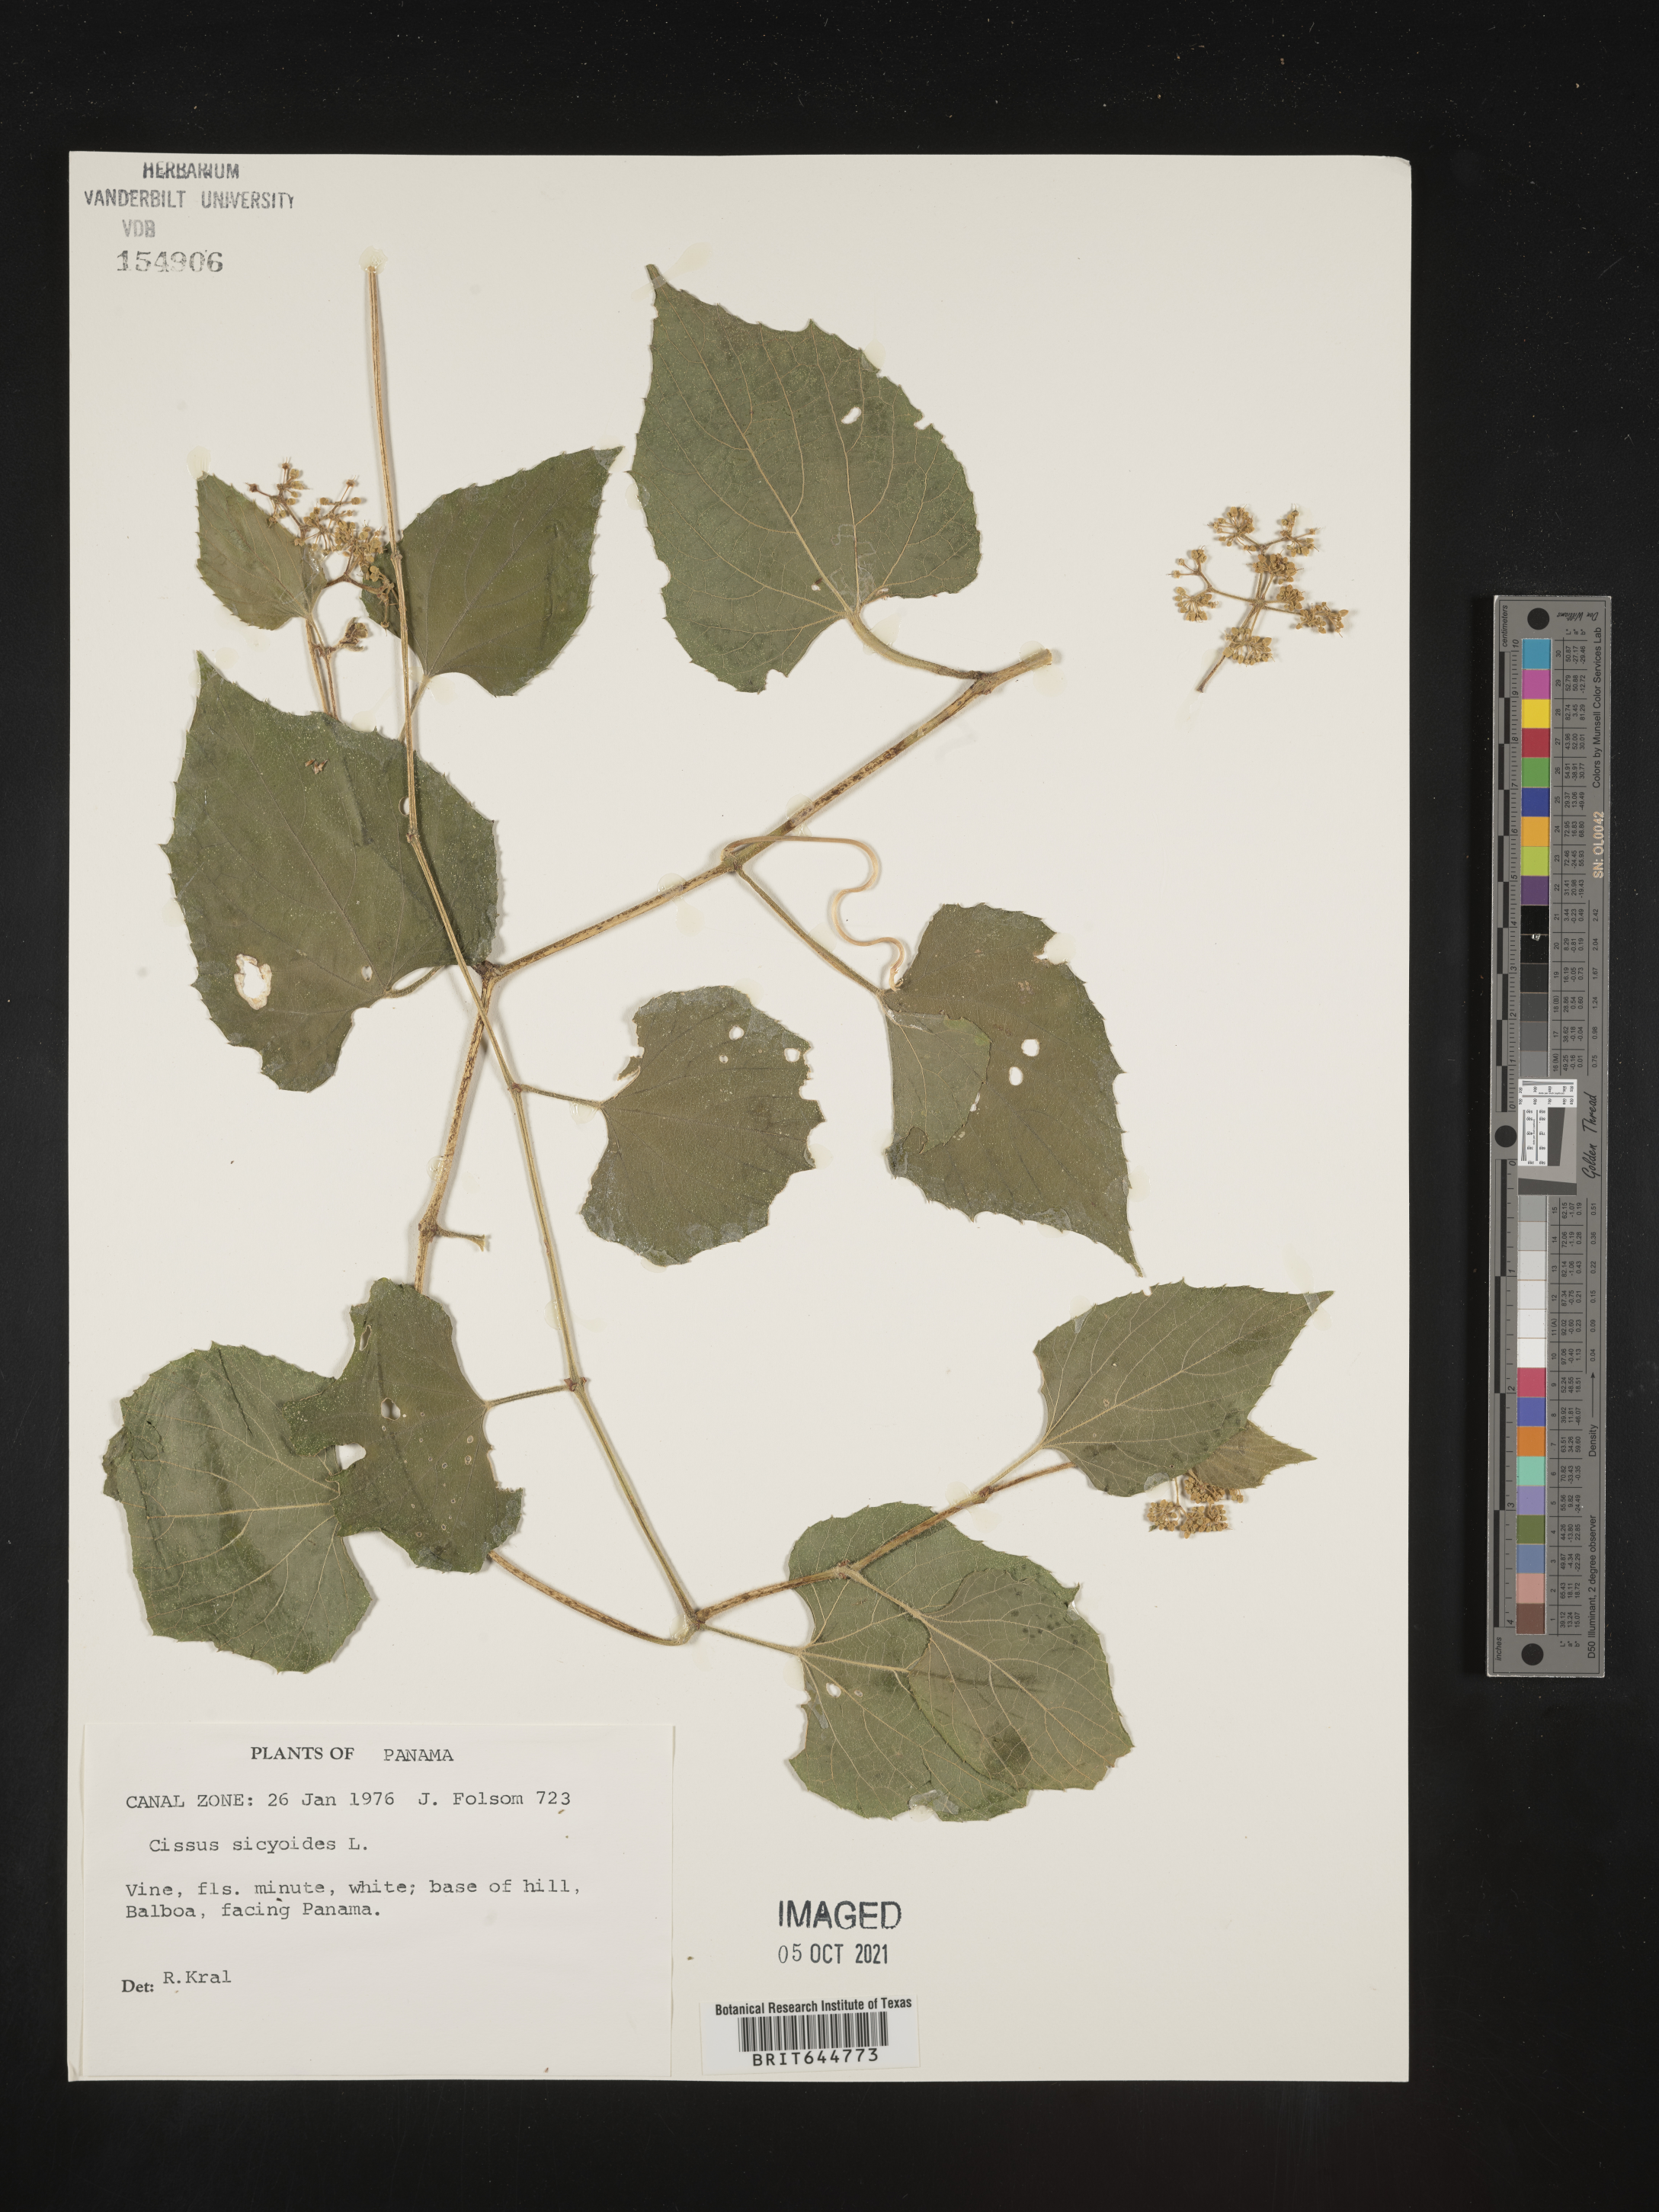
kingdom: Plantae
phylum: Tracheophyta
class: Magnoliopsida
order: Vitales
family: Vitaceae
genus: Cissus
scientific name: Cissus
